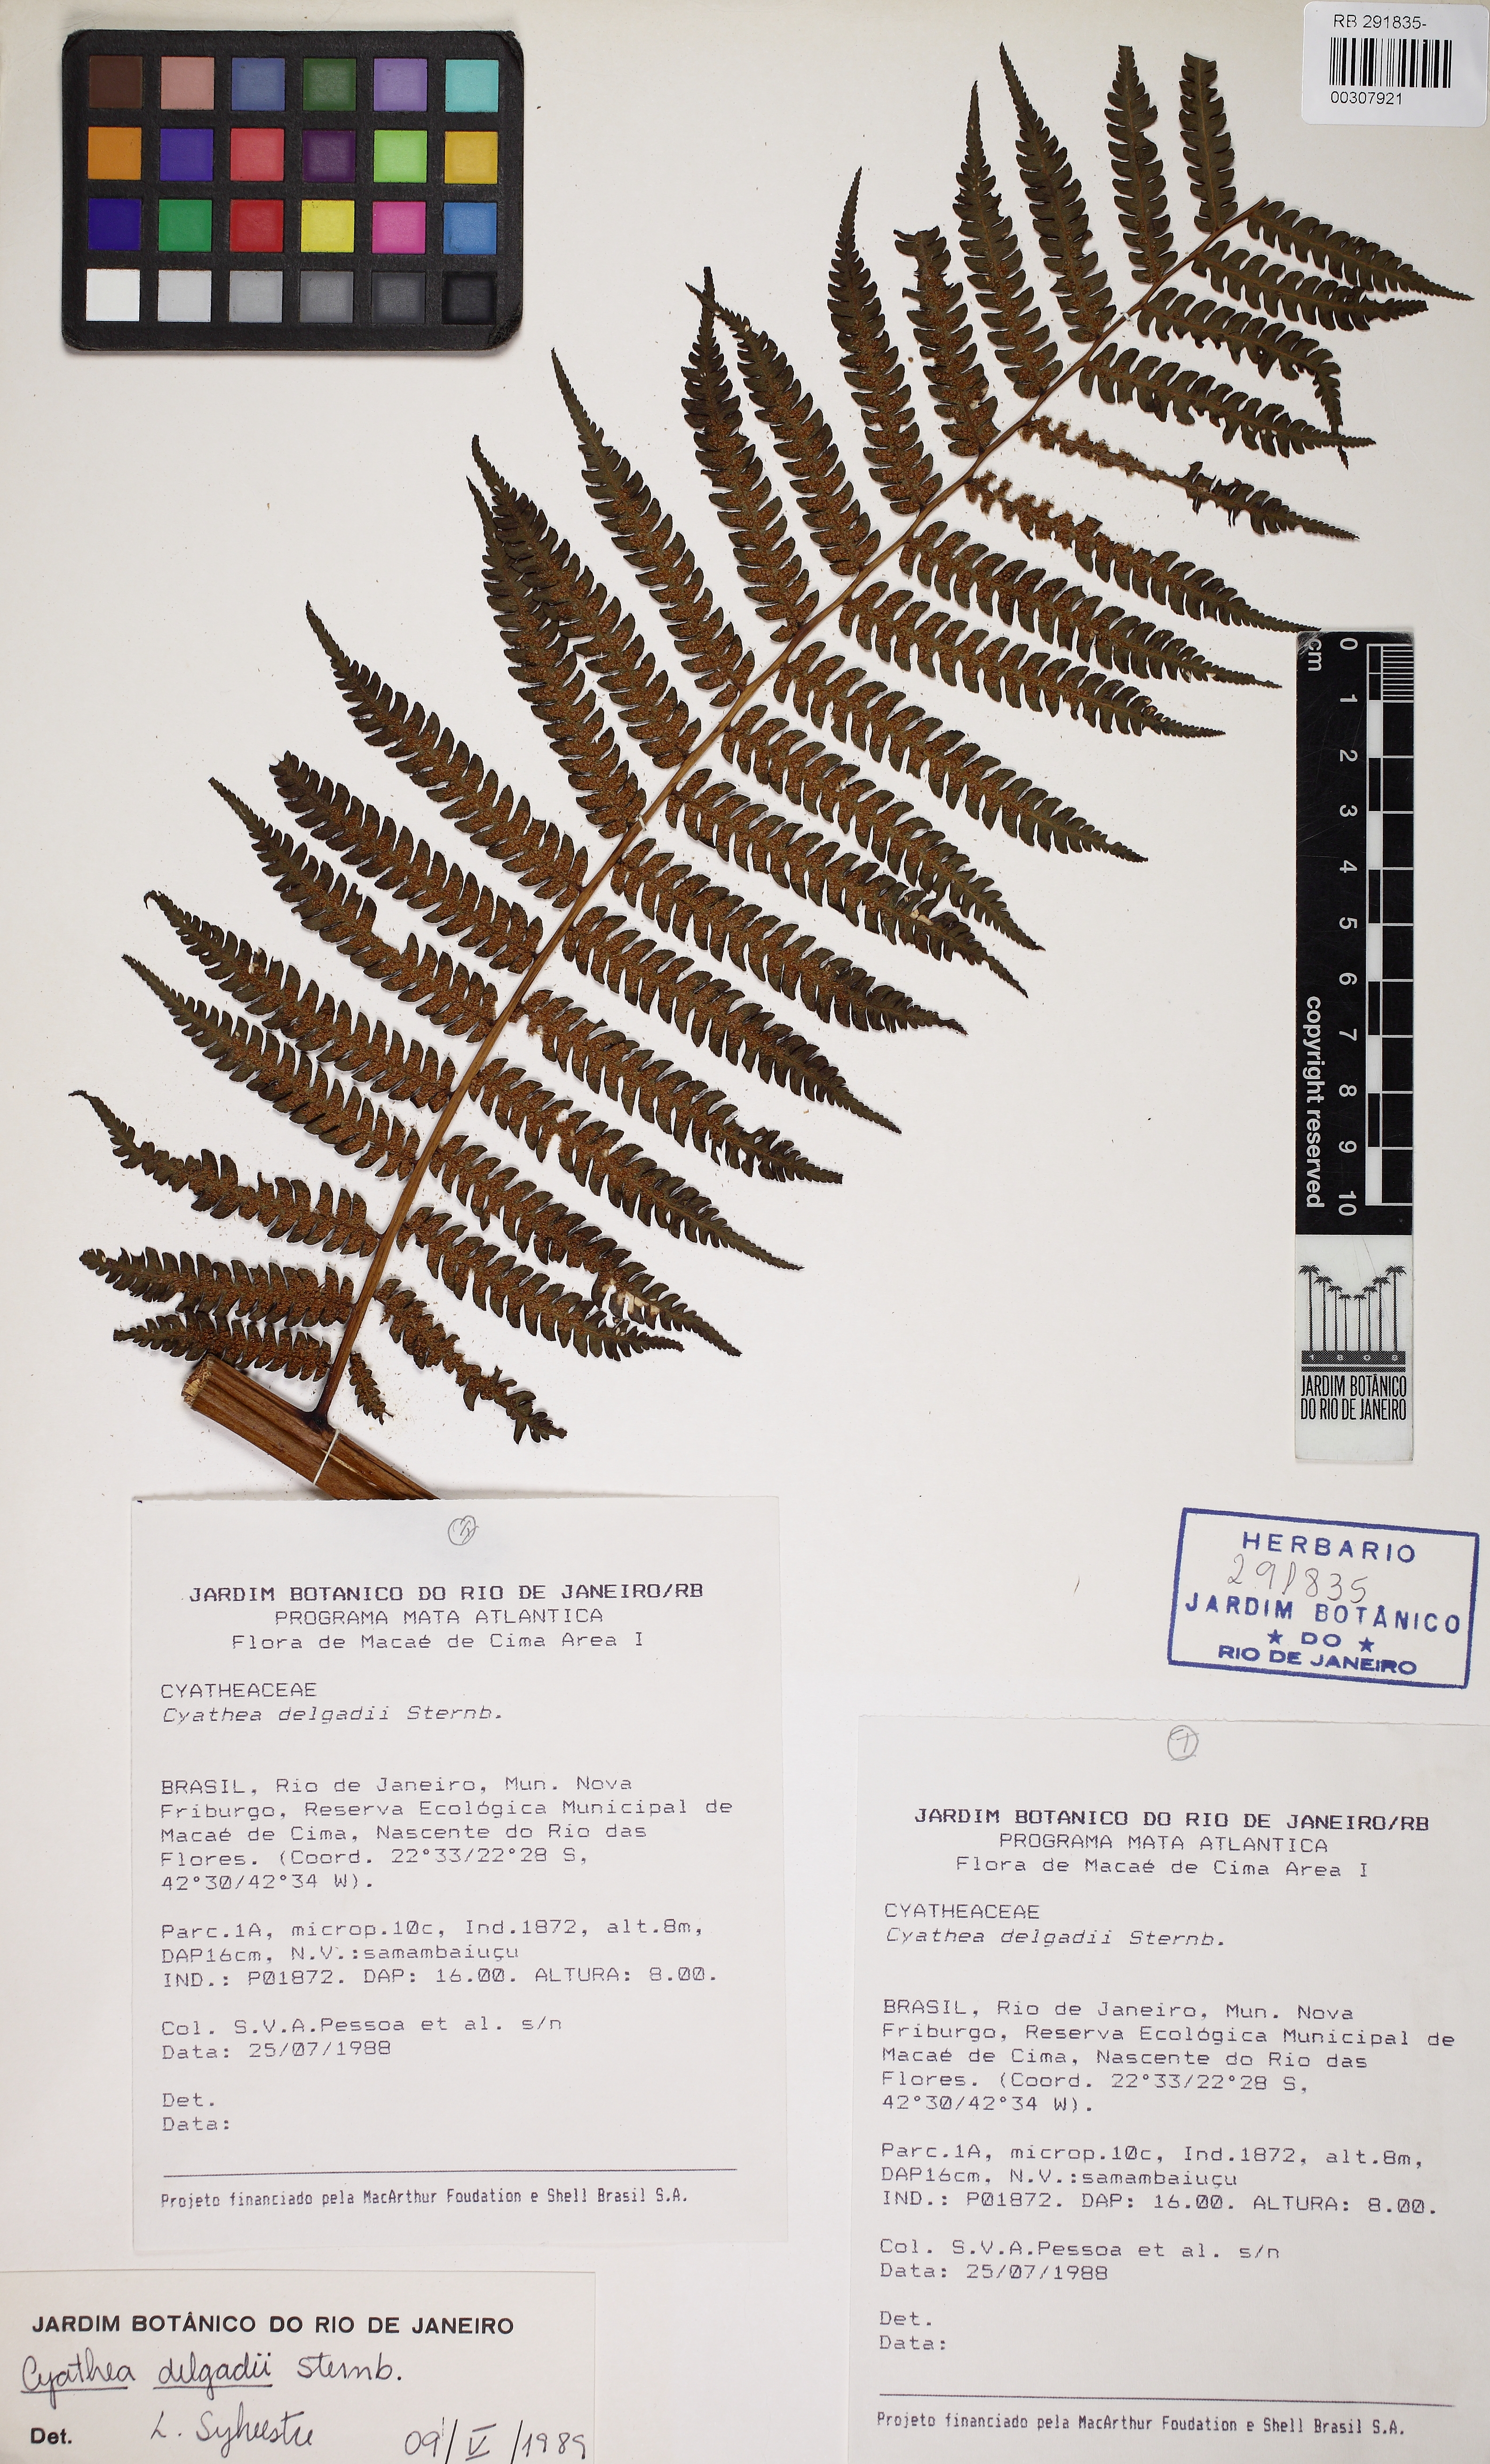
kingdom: Plantae
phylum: Tracheophyta
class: Polypodiopsida
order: Cyatheales
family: Cyatheaceae
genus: Cyathea
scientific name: Cyathea delgadii
